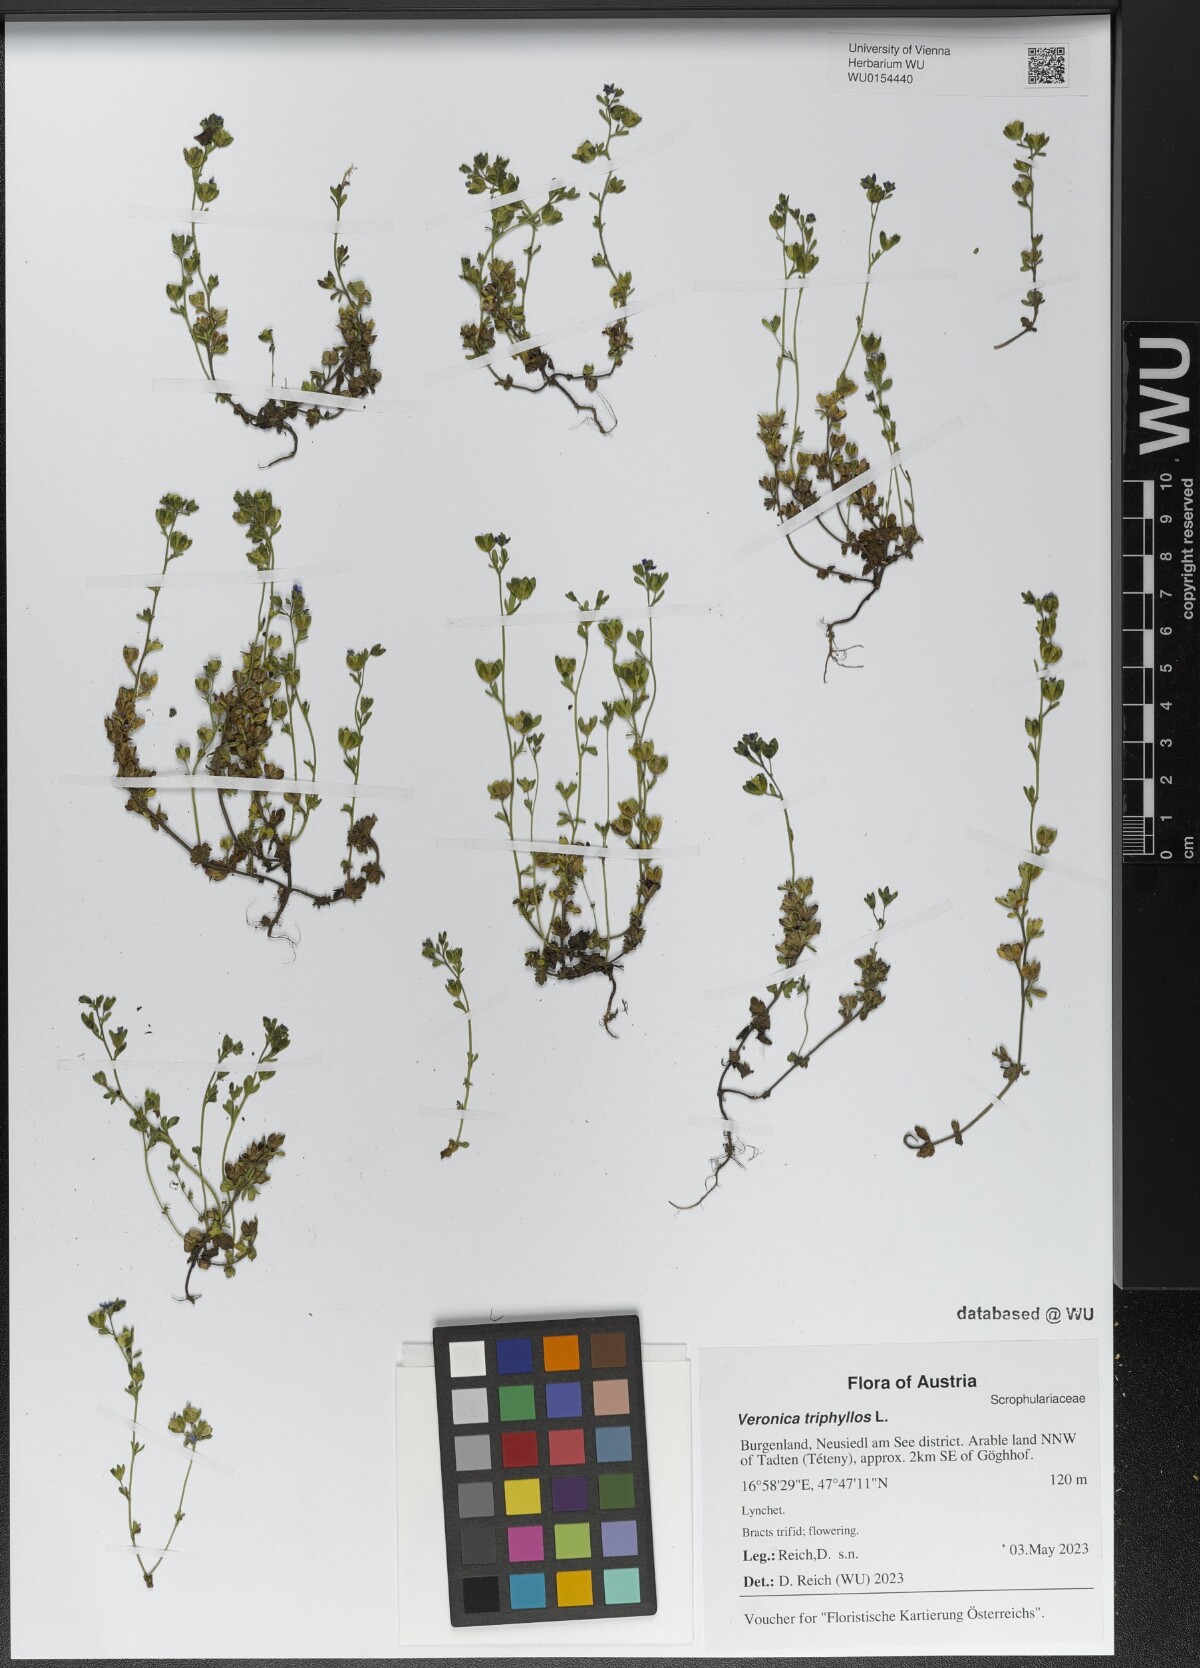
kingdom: Plantae
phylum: Tracheophyta
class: Magnoliopsida
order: Lamiales
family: Plantaginaceae
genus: Veronica
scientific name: Veronica triphyllos
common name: Fingered speedwell
